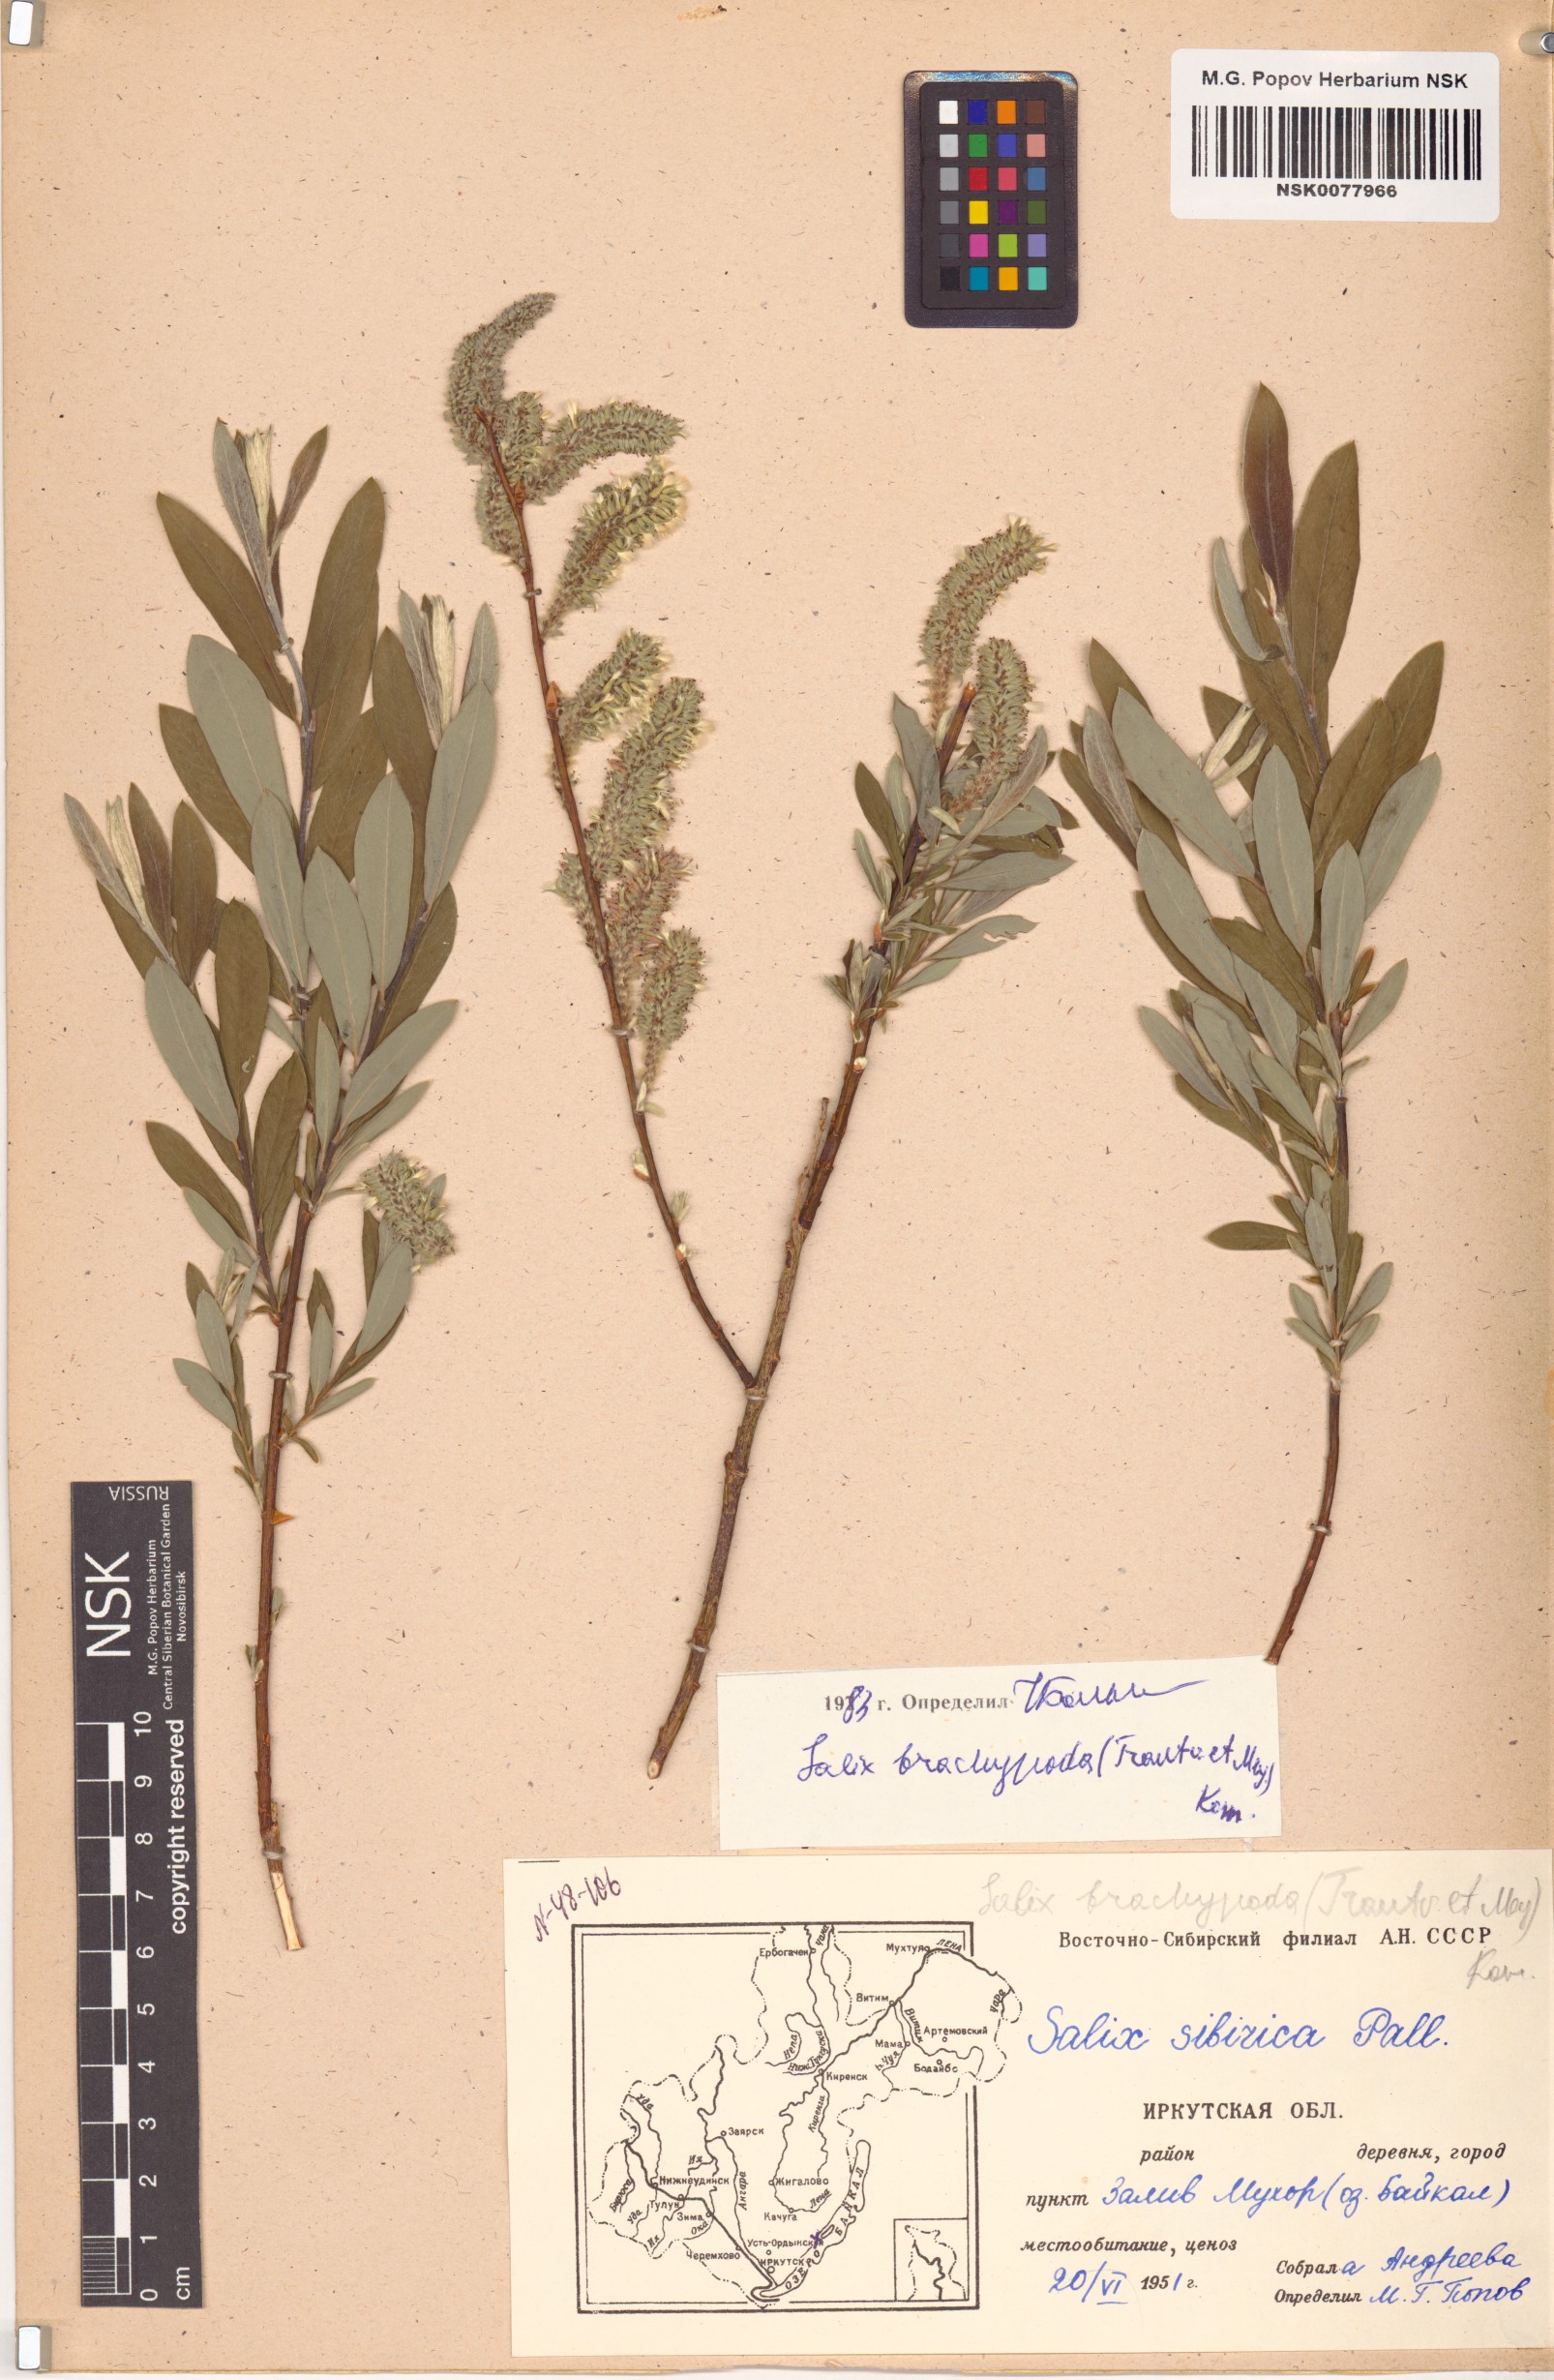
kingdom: Plantae
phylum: Tracheophyta
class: Magnoliopsida
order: Malpighiales
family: Salicaceae
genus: Salix
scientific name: Salix brachypoda
